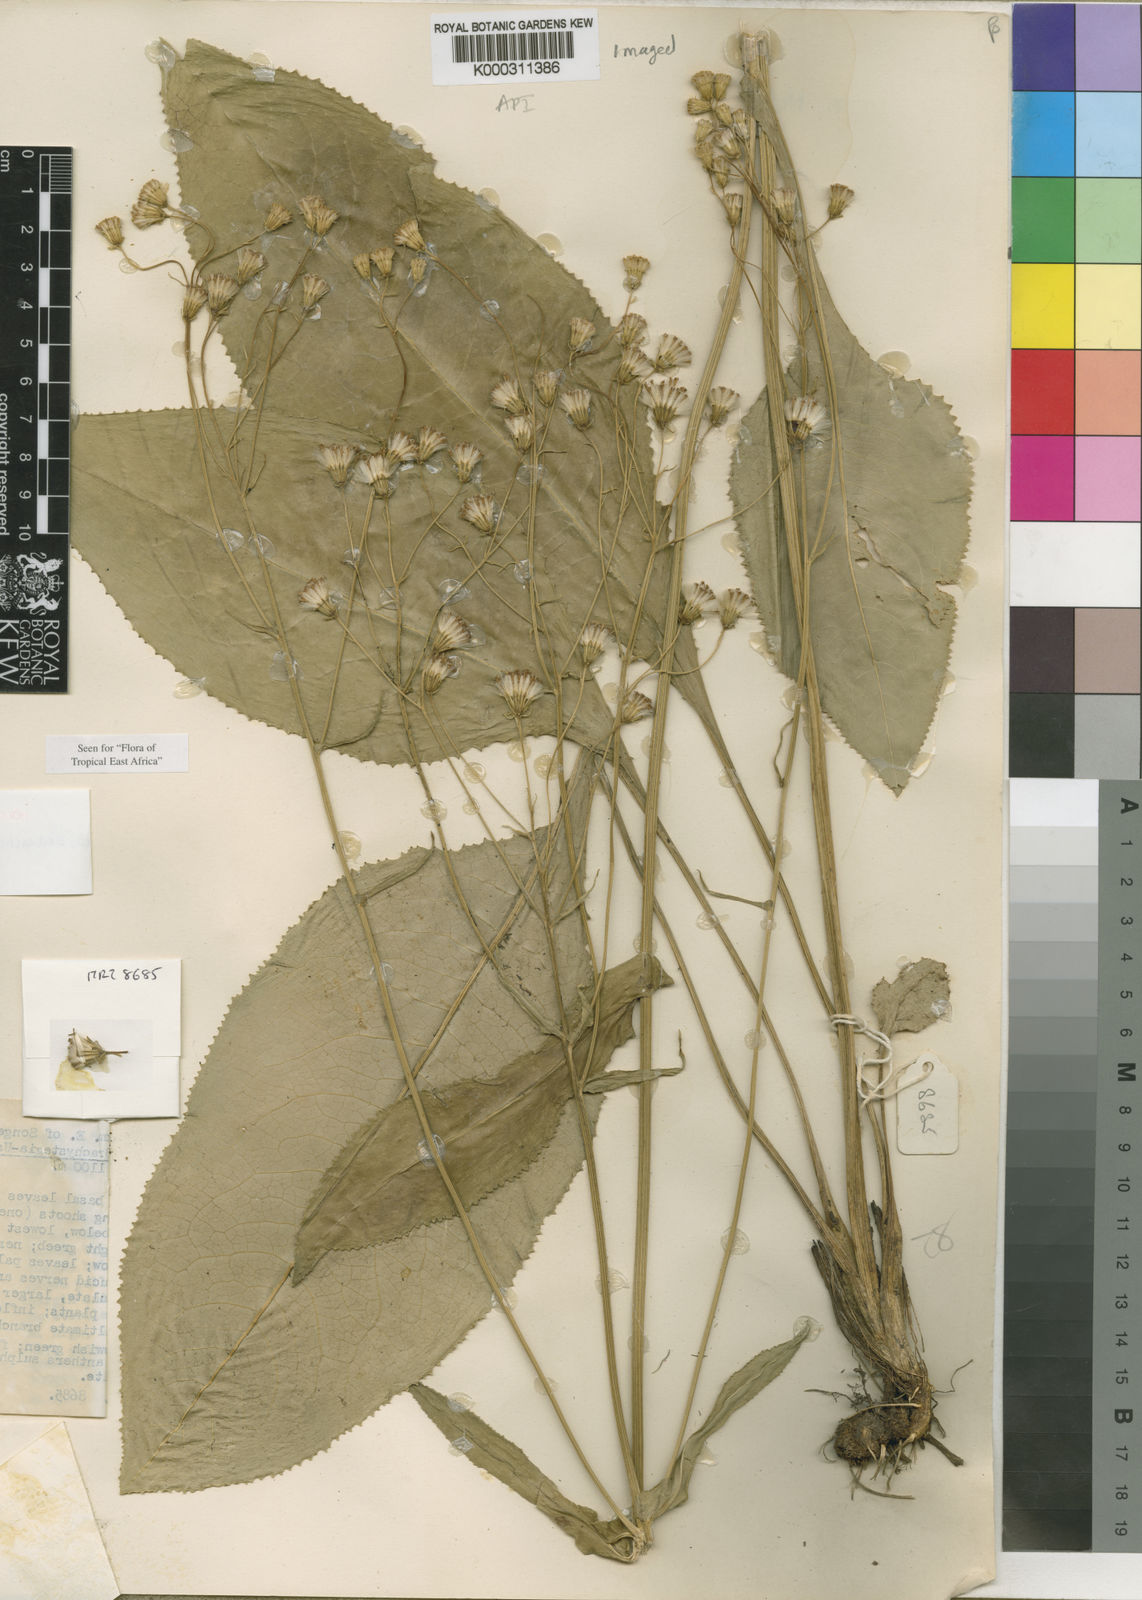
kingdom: Plantae
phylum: Tracheophyta
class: Magnoliopsida
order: Asterales
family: Asteraceae
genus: Senecio
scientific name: Senecio exarachnoideus
